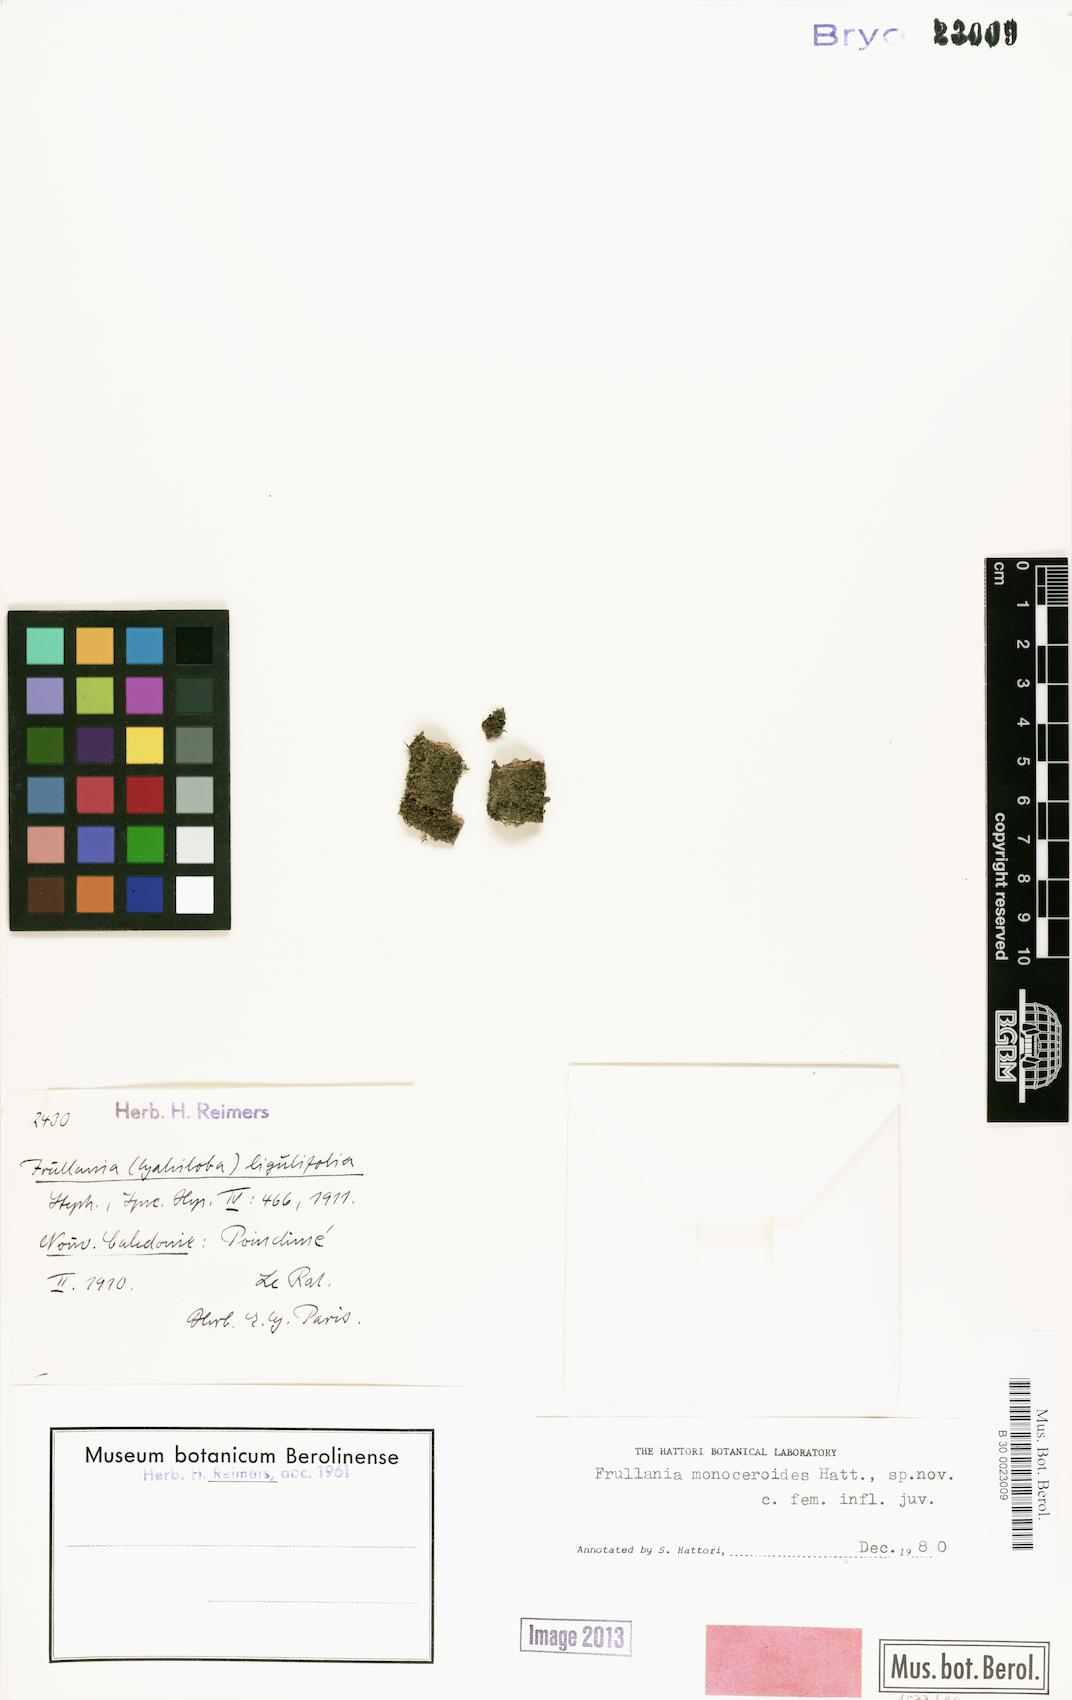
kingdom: Plantae
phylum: Marchantiophyta
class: Jungermanniopsida
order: Porellales
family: Frullaniaceae
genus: Frullania
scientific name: Frullania
